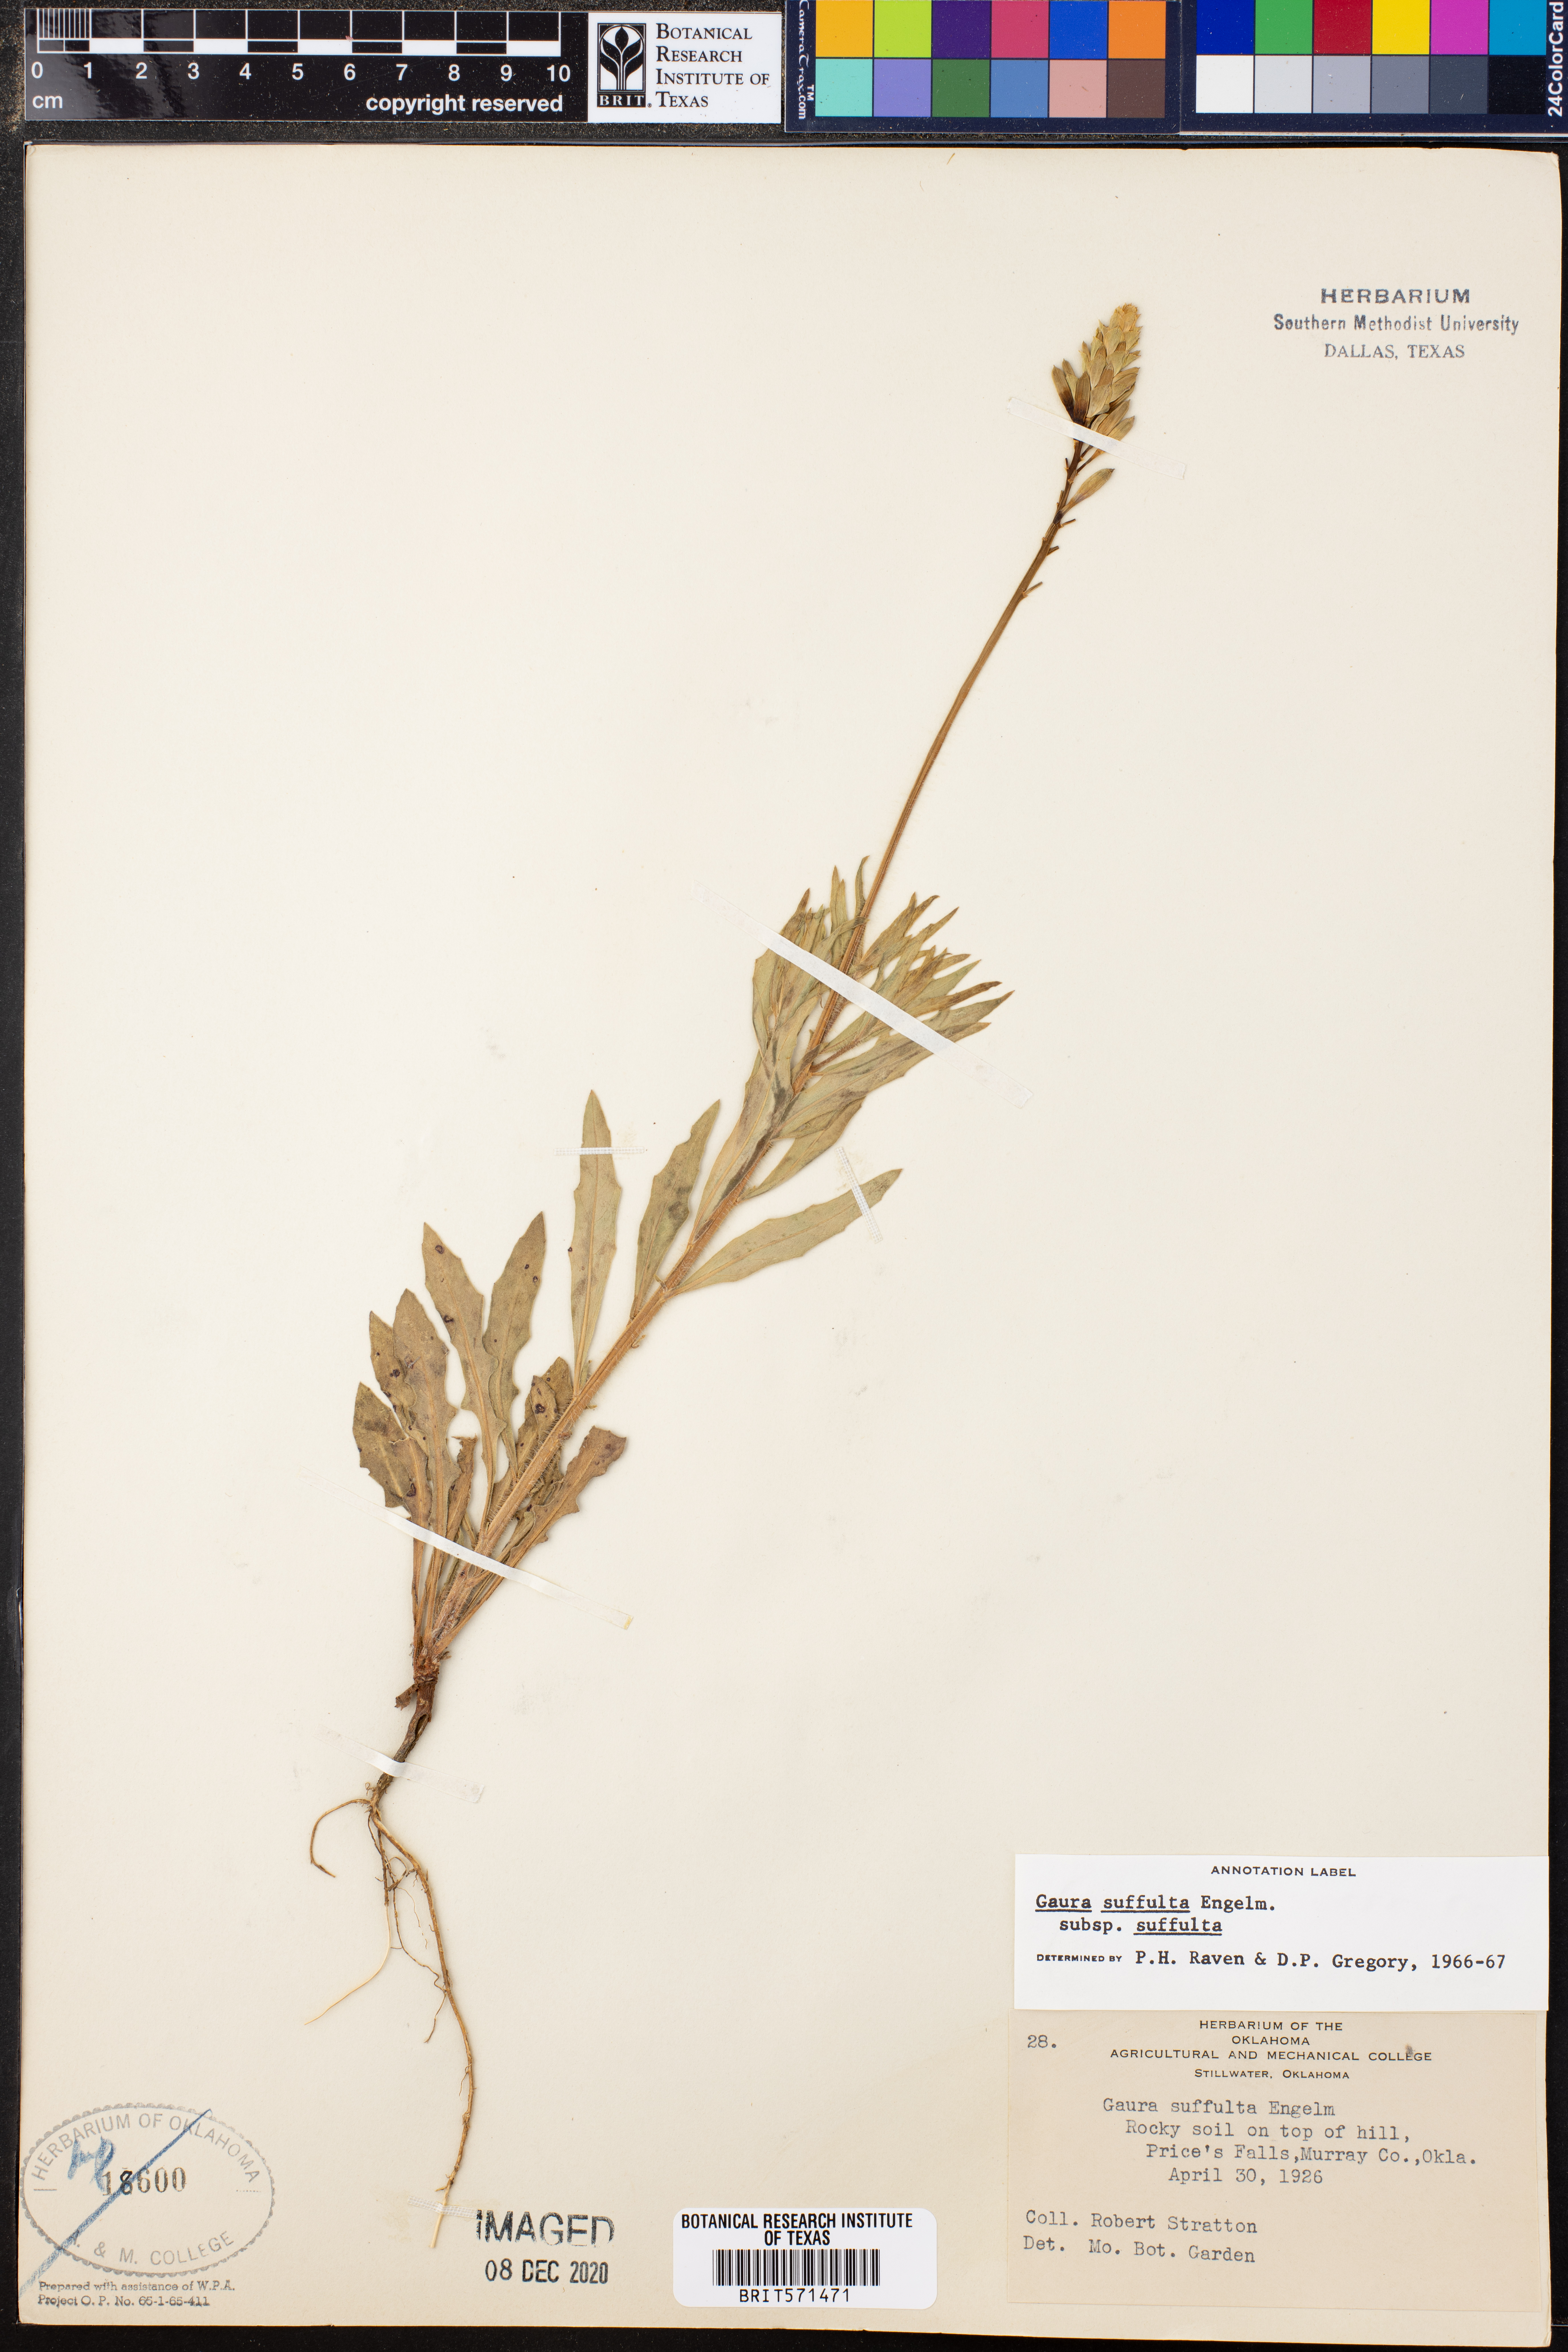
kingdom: Plantae
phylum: Tracheophyta
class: Magnoliopsida
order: Myrtales
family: Onagraceae
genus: Oenothera
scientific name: Oenothera suffulta
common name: Kisses
